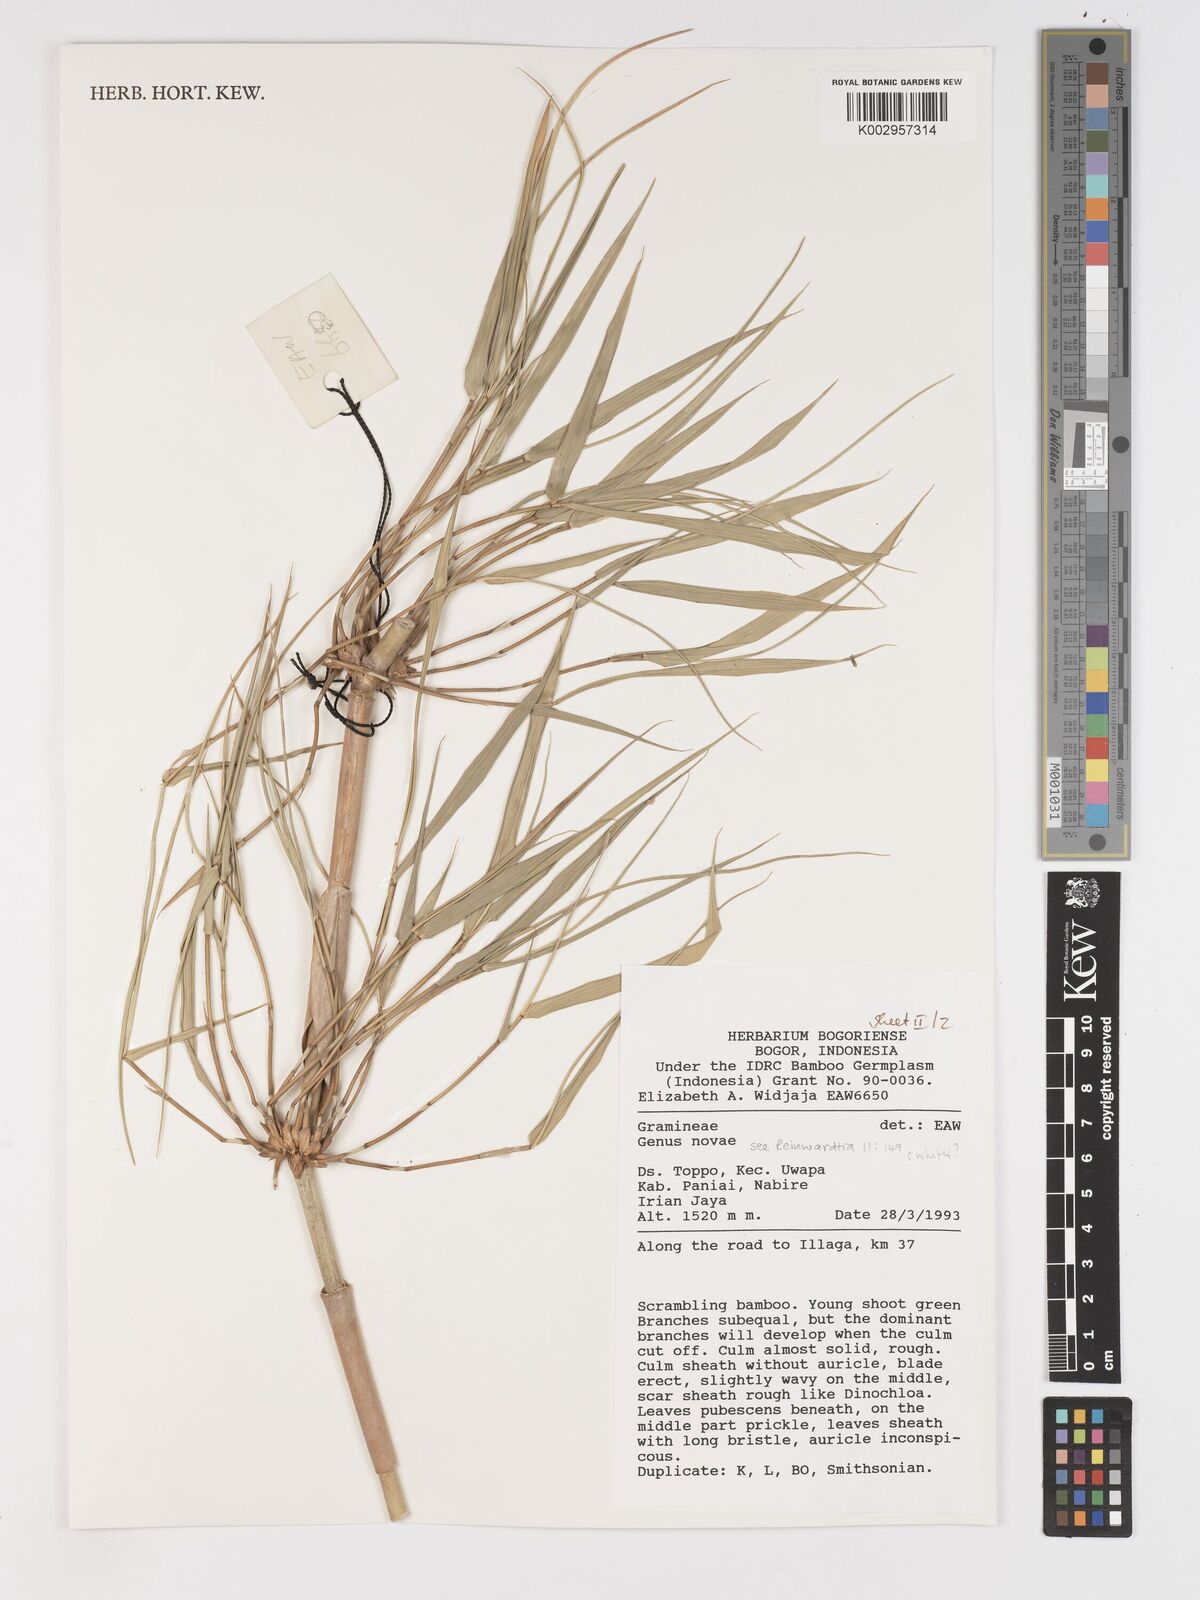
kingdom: Plantae
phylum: Tracheophyta
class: Liliopsida
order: Poales
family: Poaceae
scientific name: Poaceae
